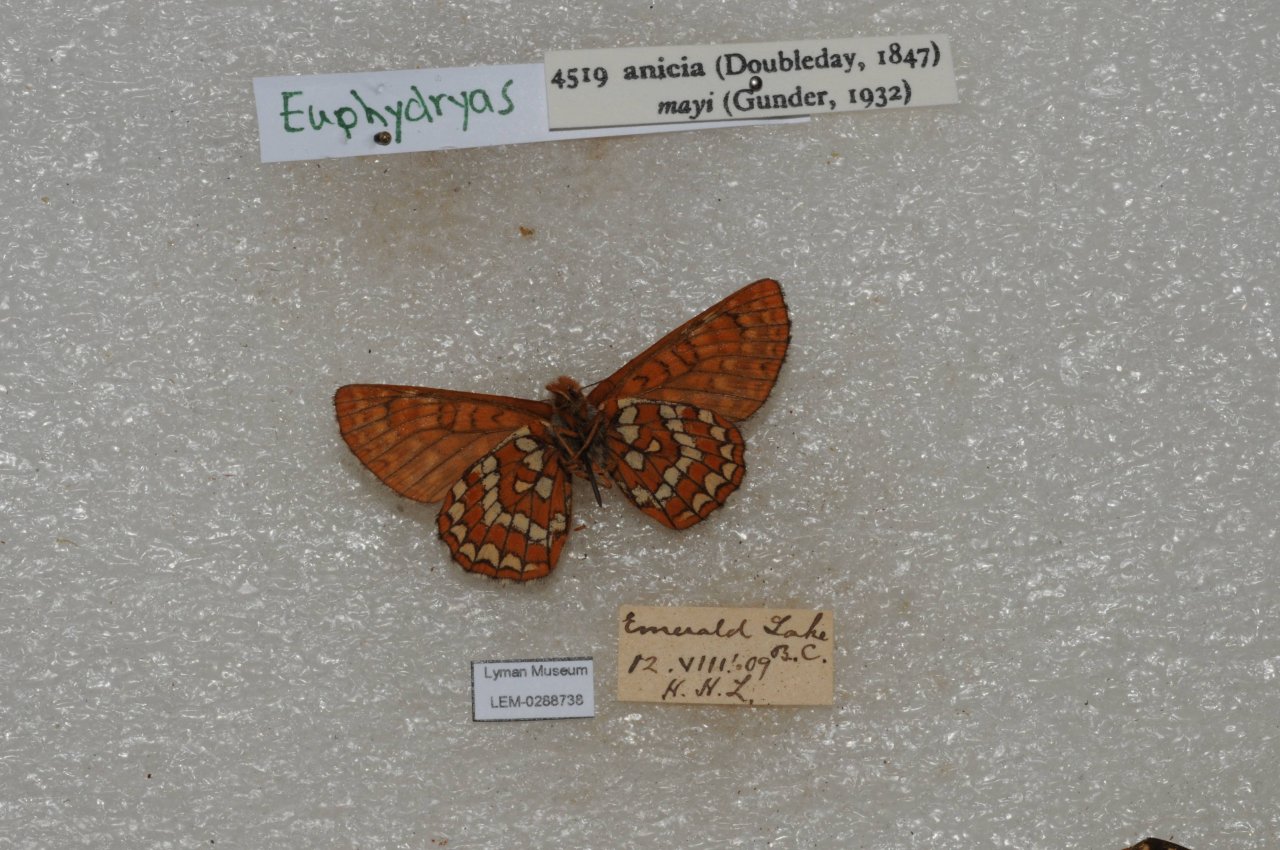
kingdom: Animalia
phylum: Arthropoda
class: Insecta
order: Lepidoptera
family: Nymphalidae
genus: Occidryas
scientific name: Occidryas anicia
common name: Anicia Checkerspot
